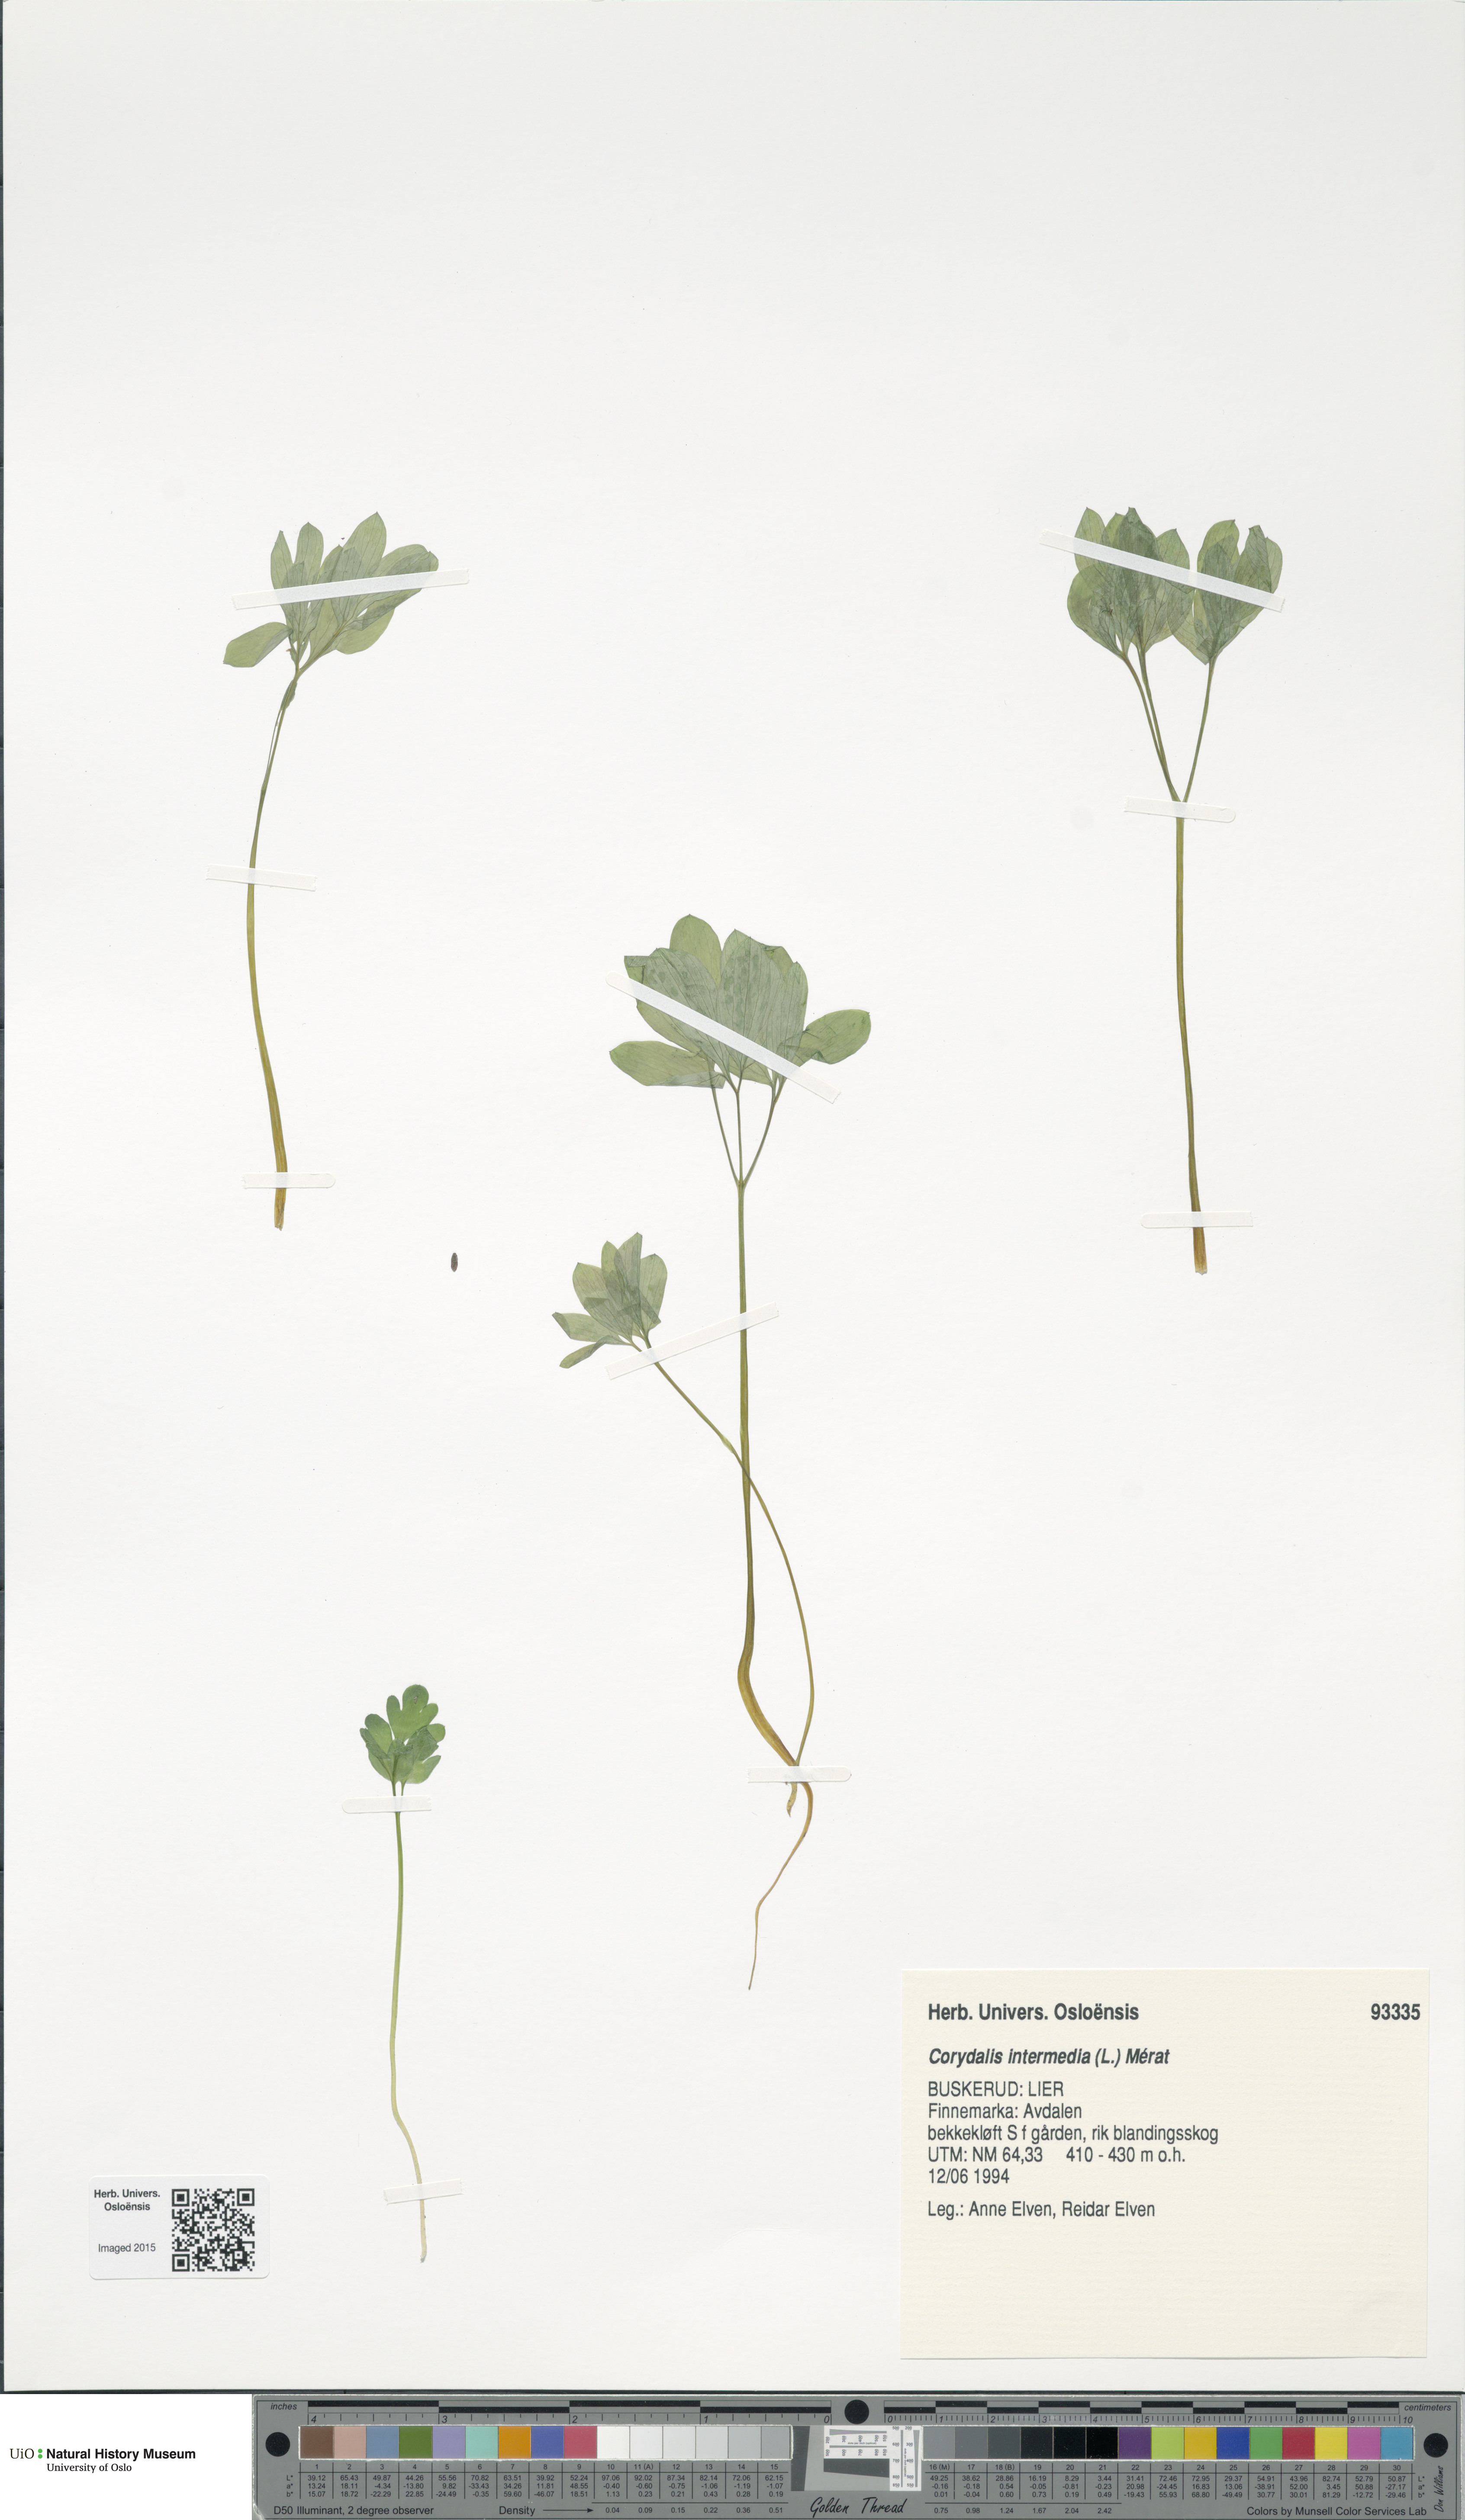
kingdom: Plantae
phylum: Tracheophyta
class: Magnoliopsida
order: Ranunculales
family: Papaveraceae
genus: Corydalis
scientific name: Corydalis intermedia
